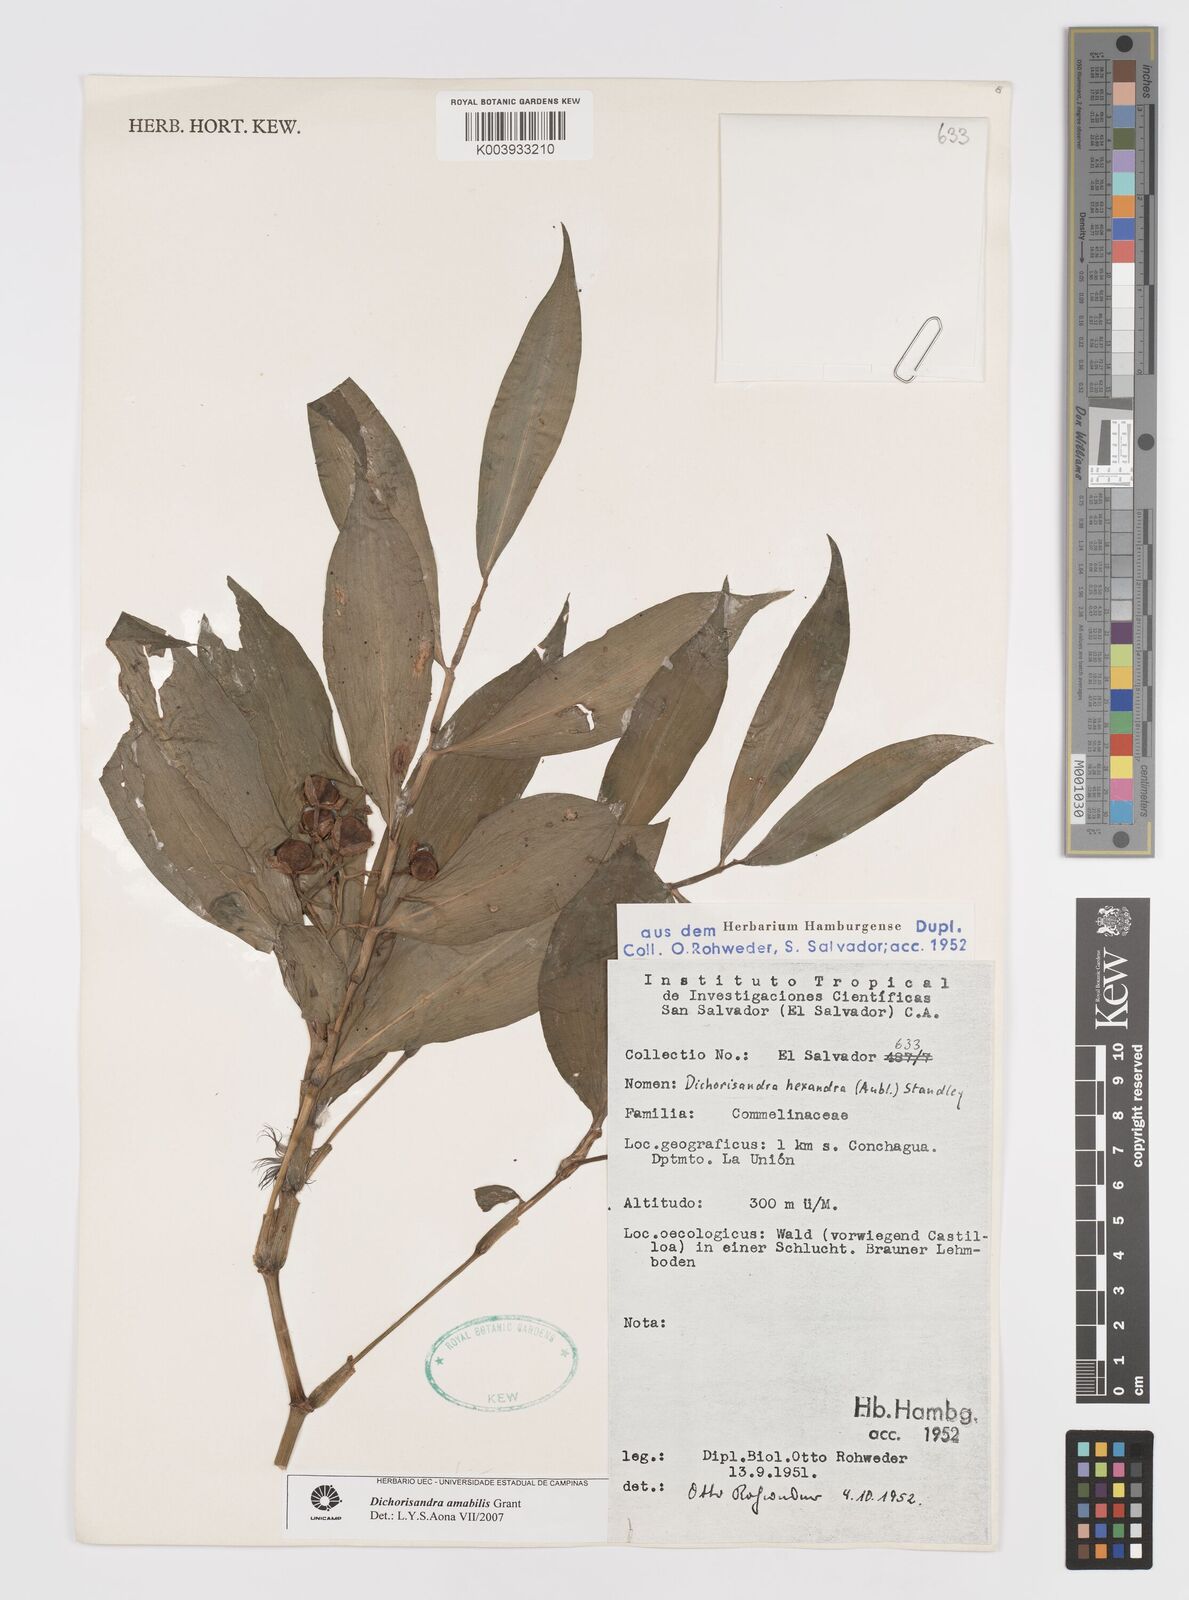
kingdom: Plantae
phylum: Tracheophyta
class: Liliopsida
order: Commelinales
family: Commelinaceae
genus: Dichorisandra
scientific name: Dichorisandra amabilis
